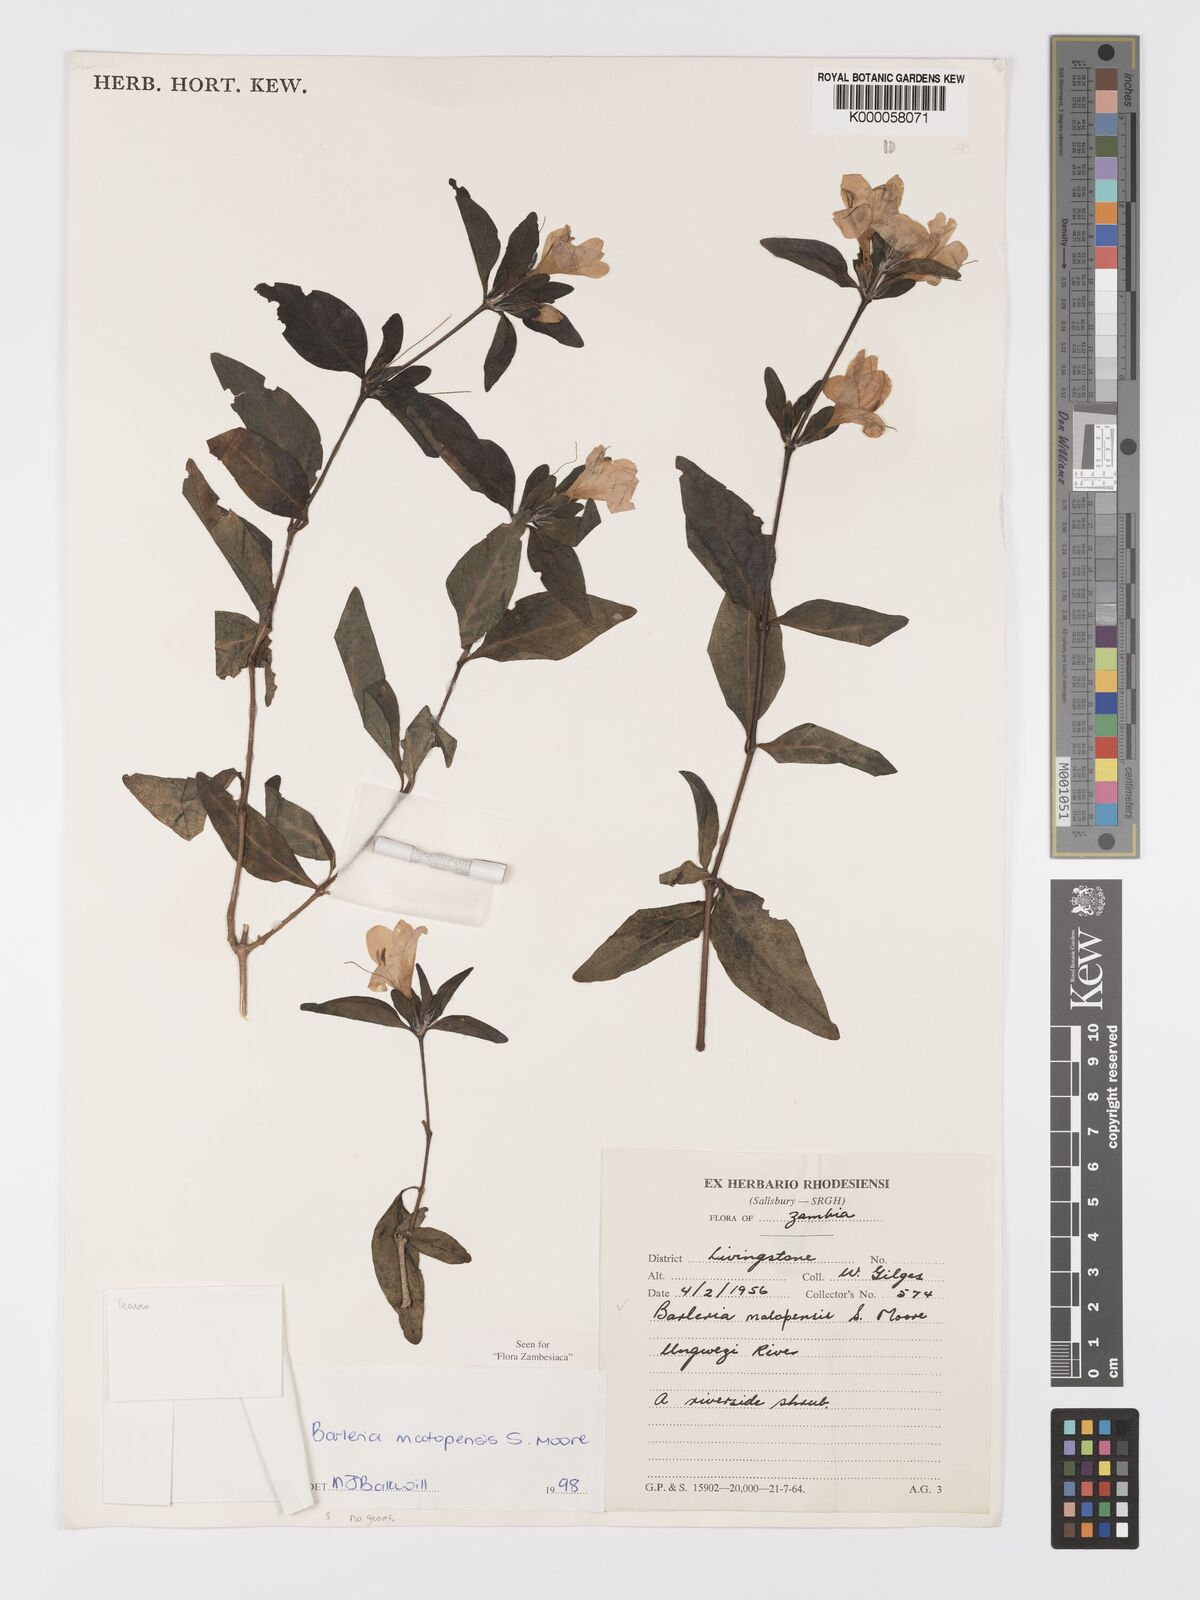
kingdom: Plantae
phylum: Tracheophyta
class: Magnoliopsida
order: Lamiales
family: Acanthaceae
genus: Barleria
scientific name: Barleria matopensis
